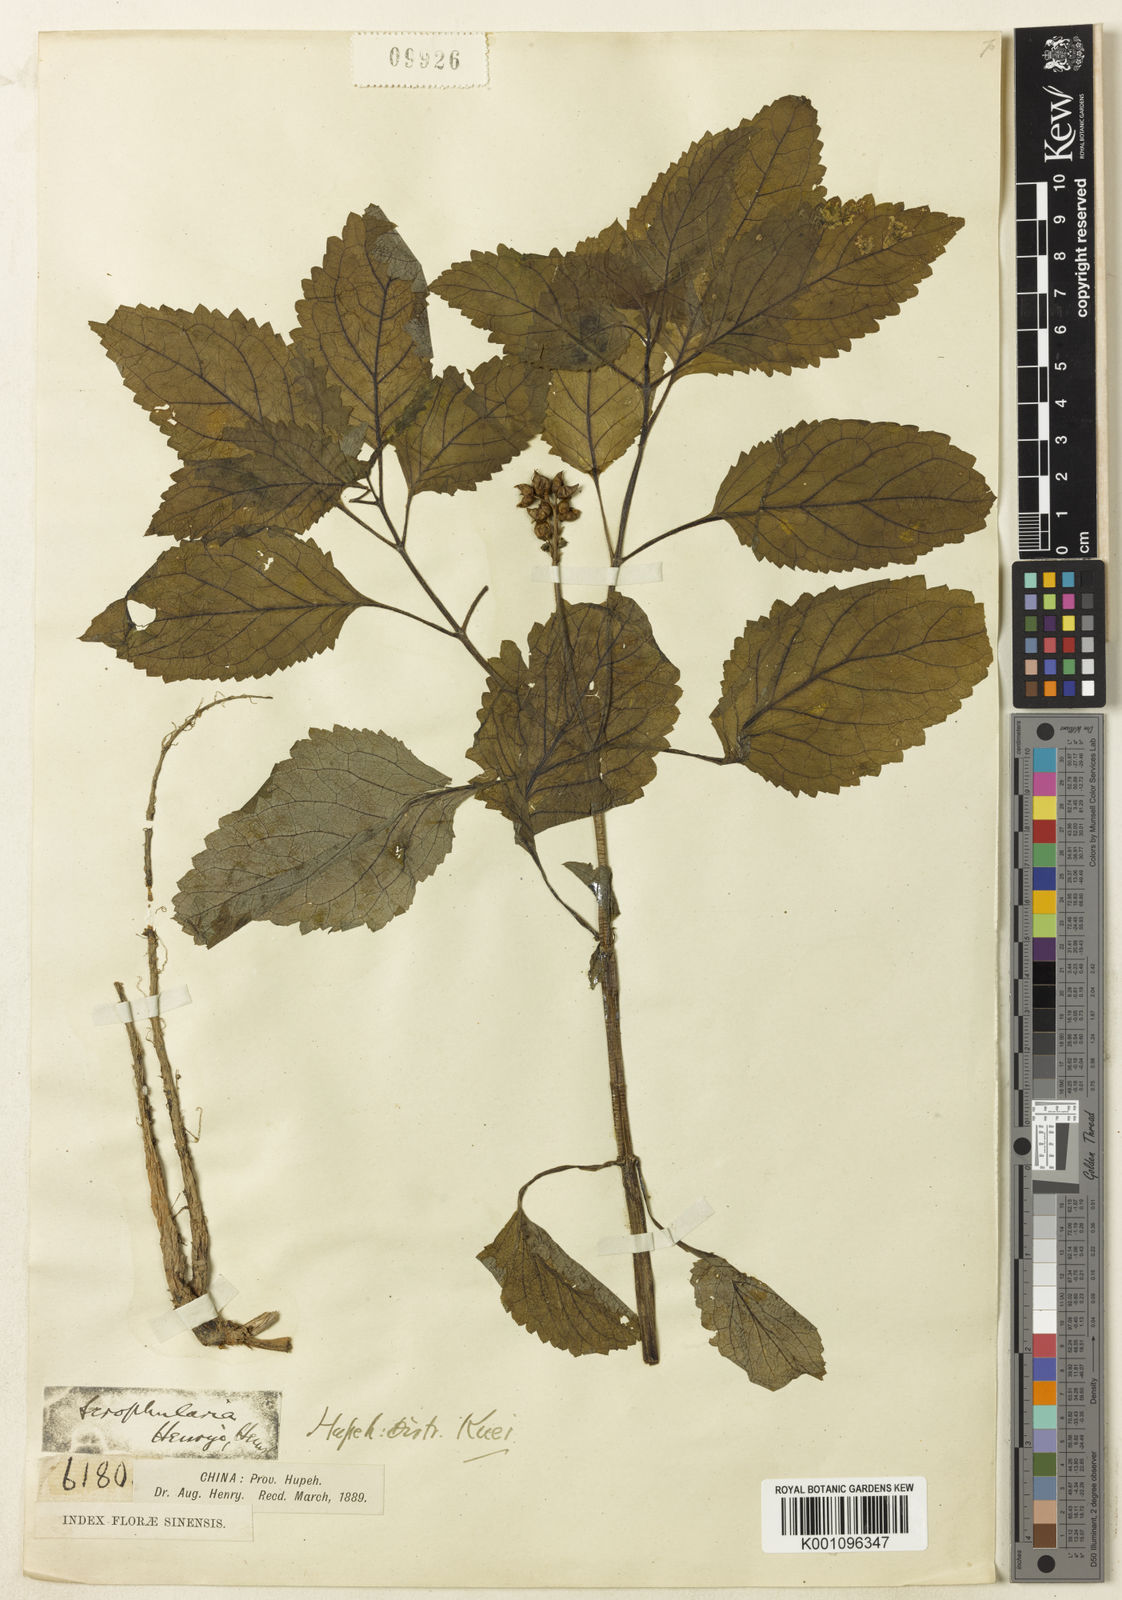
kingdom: Plantae
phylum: Tracheophyta
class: Magnoliopsida
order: Lamiales
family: Scrophulariaceae
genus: Scrophularia
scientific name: Scrophularia henryi
